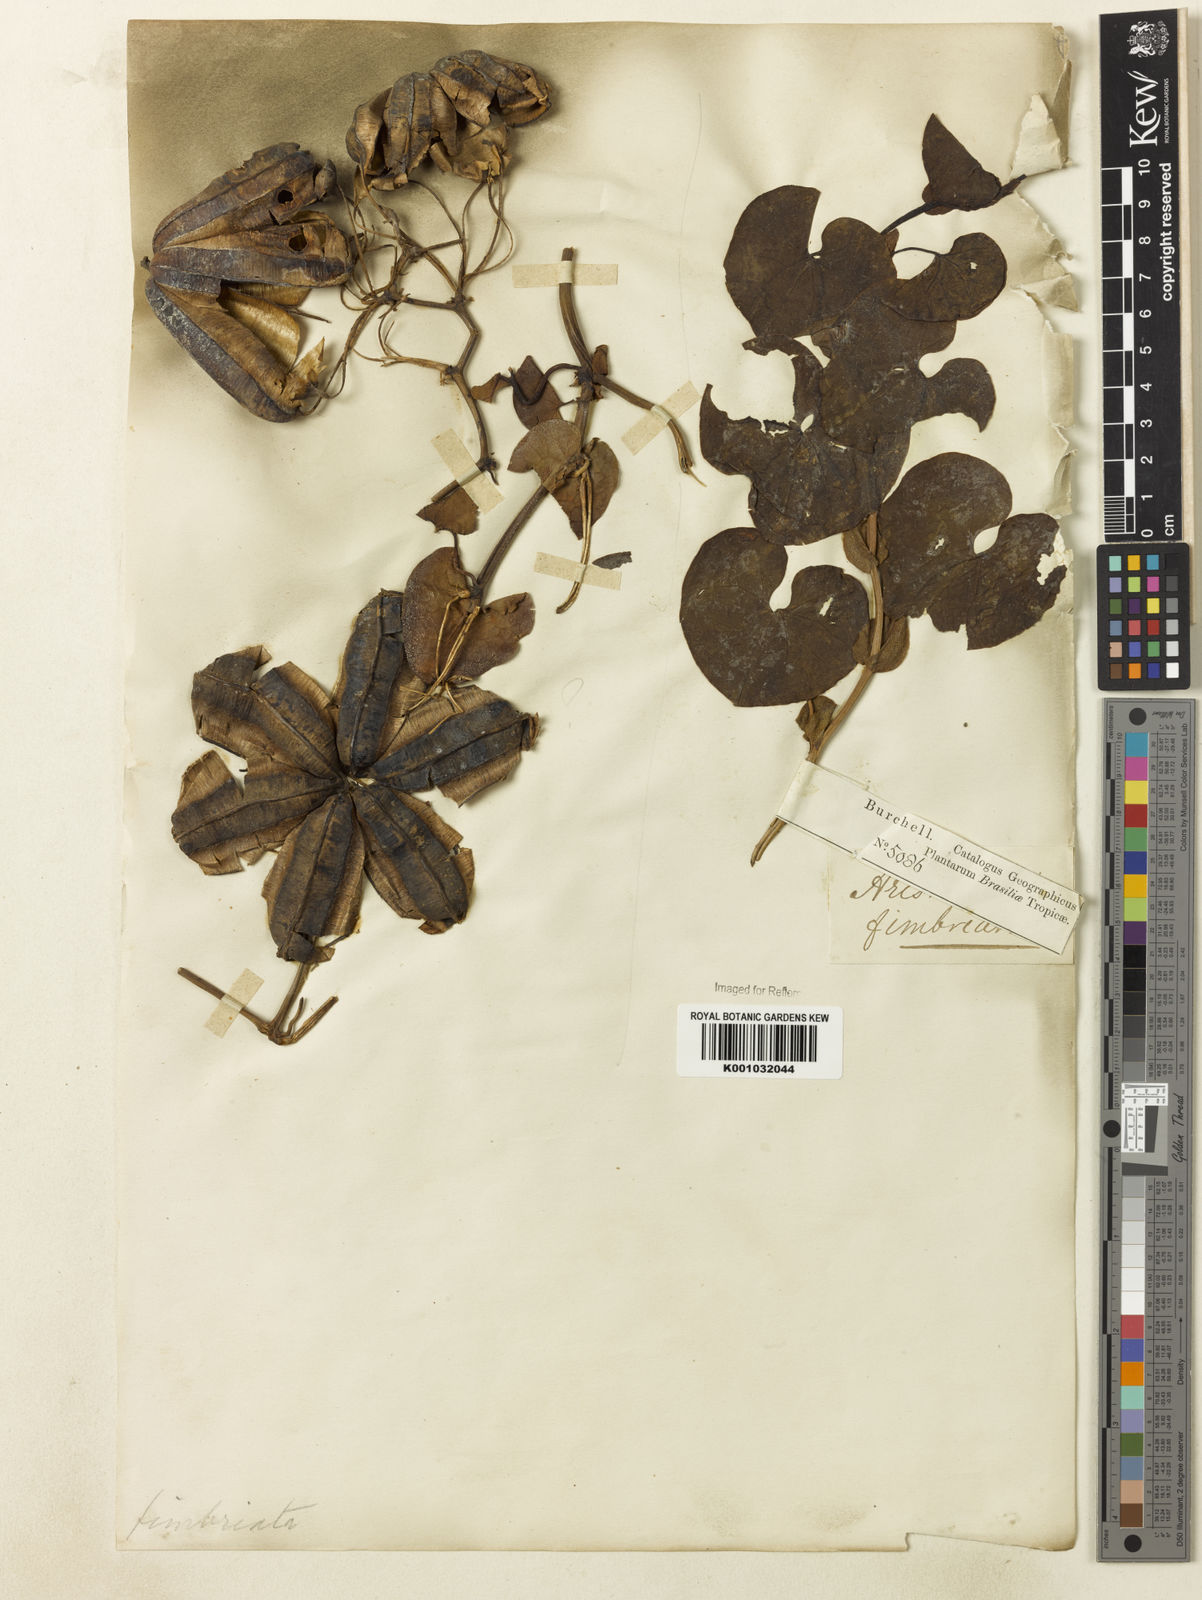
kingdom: Plantae
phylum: Tracheophyta
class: Magnoliopsida
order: Piperales
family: Aristolochiaceae
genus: Aristolochia
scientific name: Aristolochia
